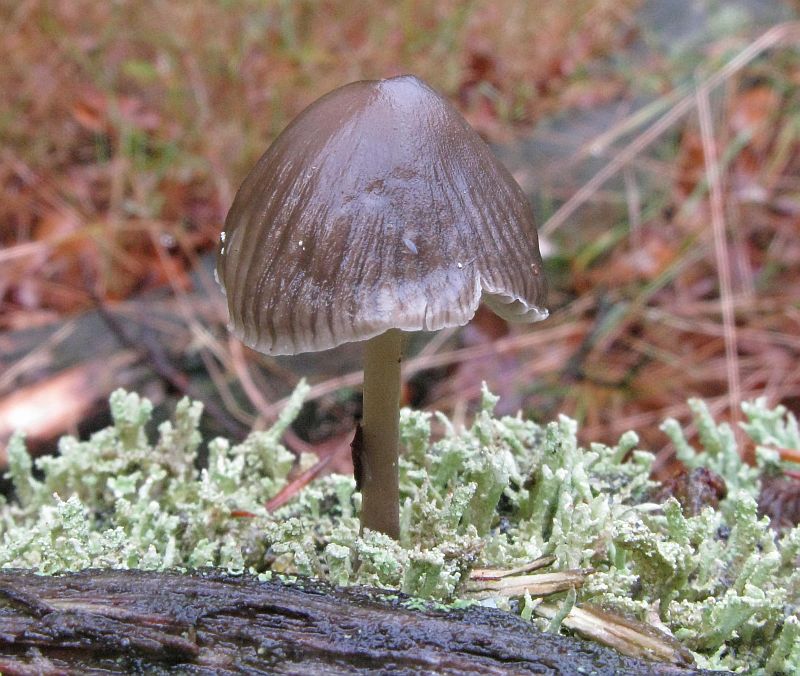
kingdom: Fungi
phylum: Basidiomycota
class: Agaricomycetes
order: Agaricales
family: Mycenaceae
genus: Mycena
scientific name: Mycena galericulata
